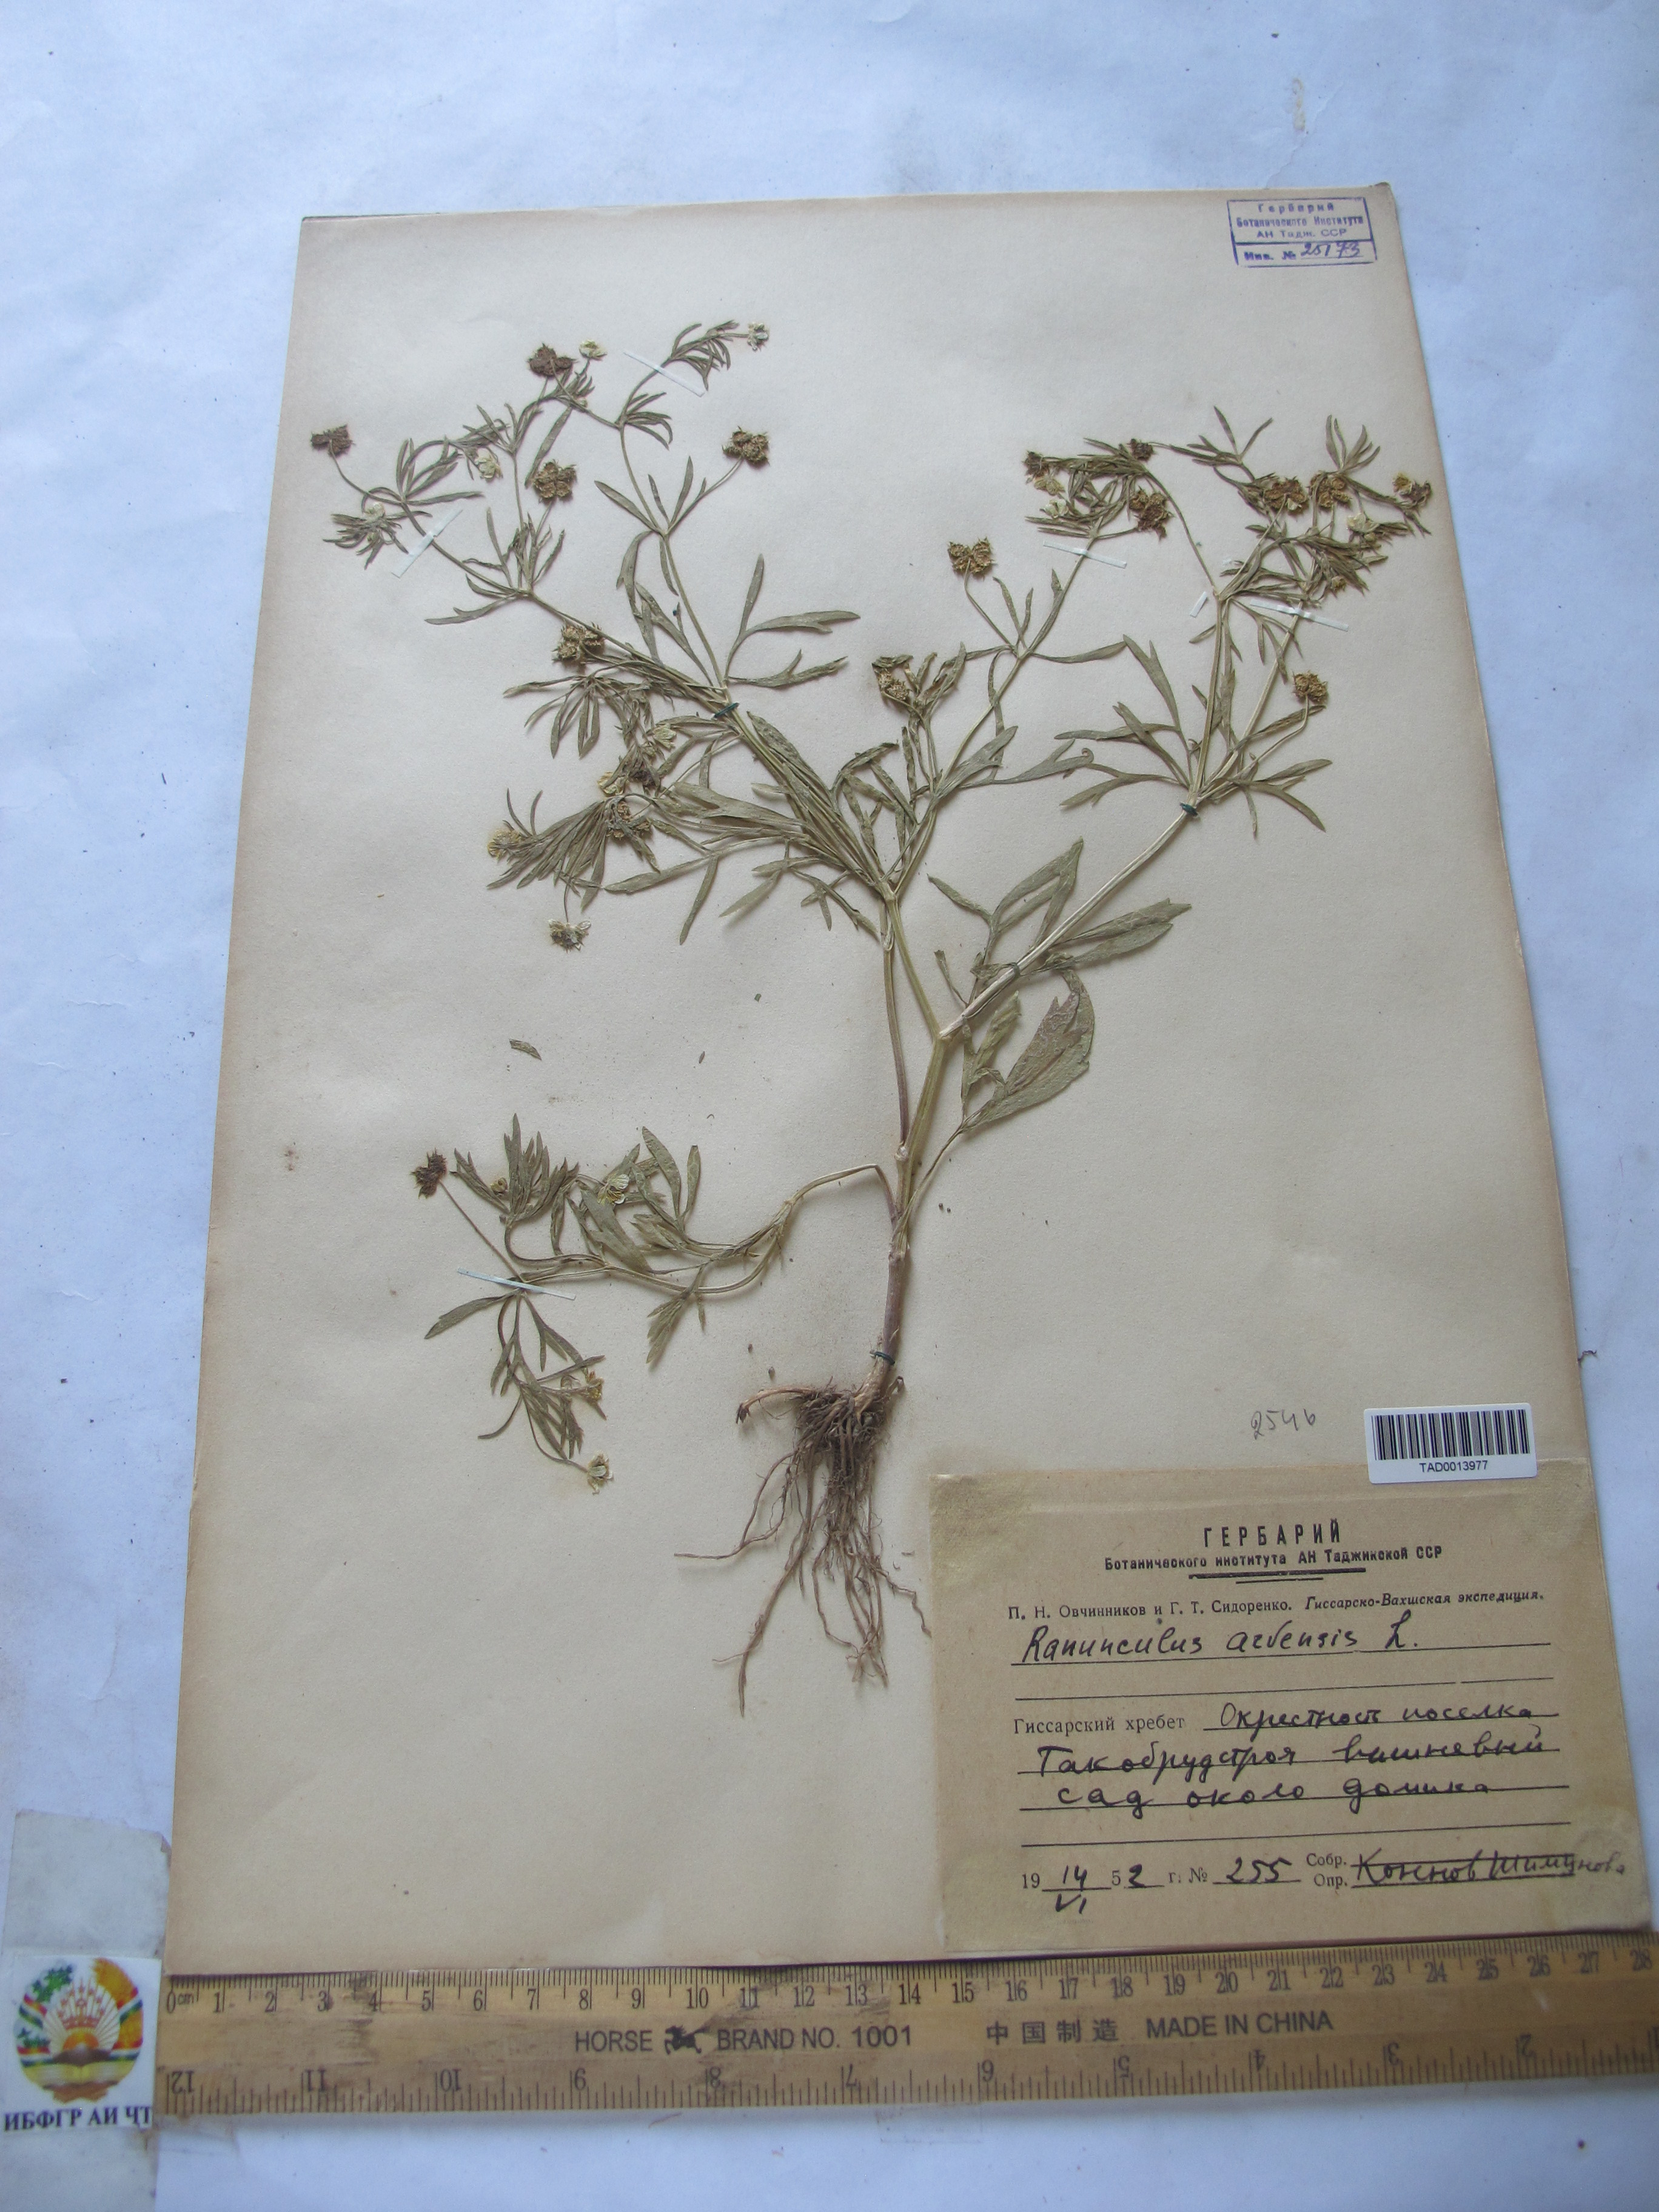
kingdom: Plantae
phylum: Tracheophyta
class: Magnoliopsida
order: Ranunculales
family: Ranunculaceae
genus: Ranunculus
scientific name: Ranunculus arvensis
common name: Corn buttercup
